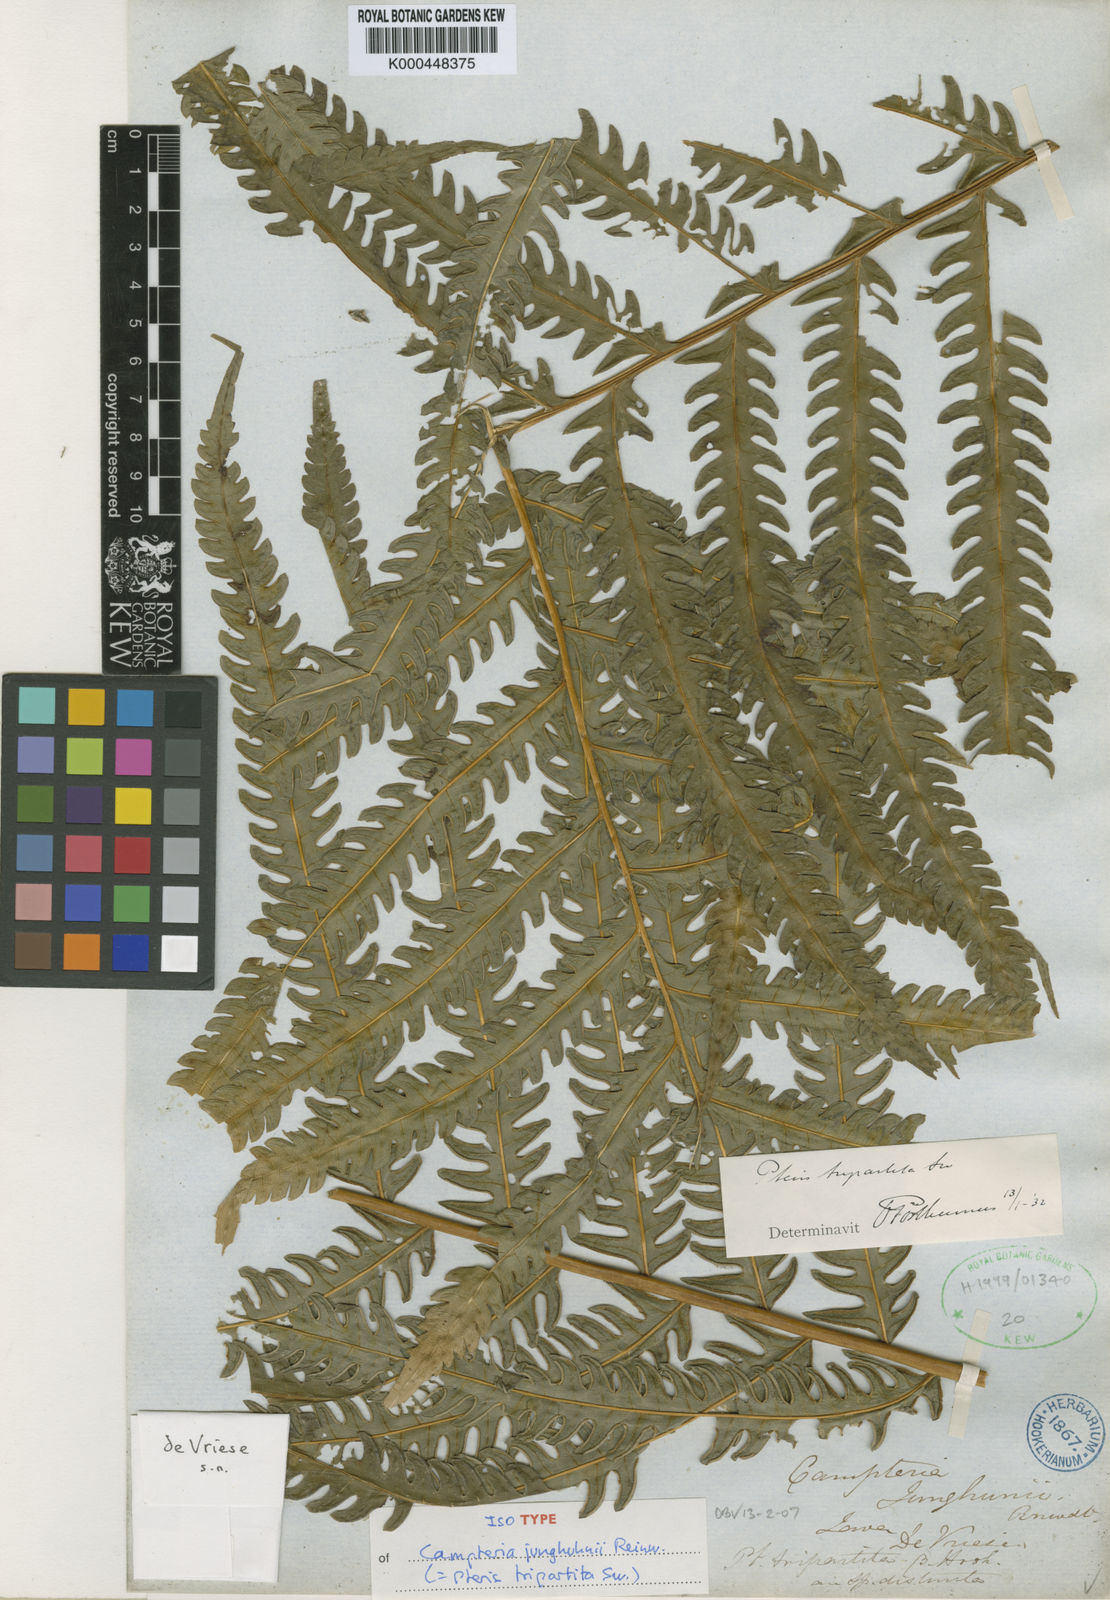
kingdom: Plantae
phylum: Tracheophyta
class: Polypodiopsida
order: Polypodiales
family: Pteridaceae
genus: Pteris
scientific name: Pteris tripartita
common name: Giant brake
